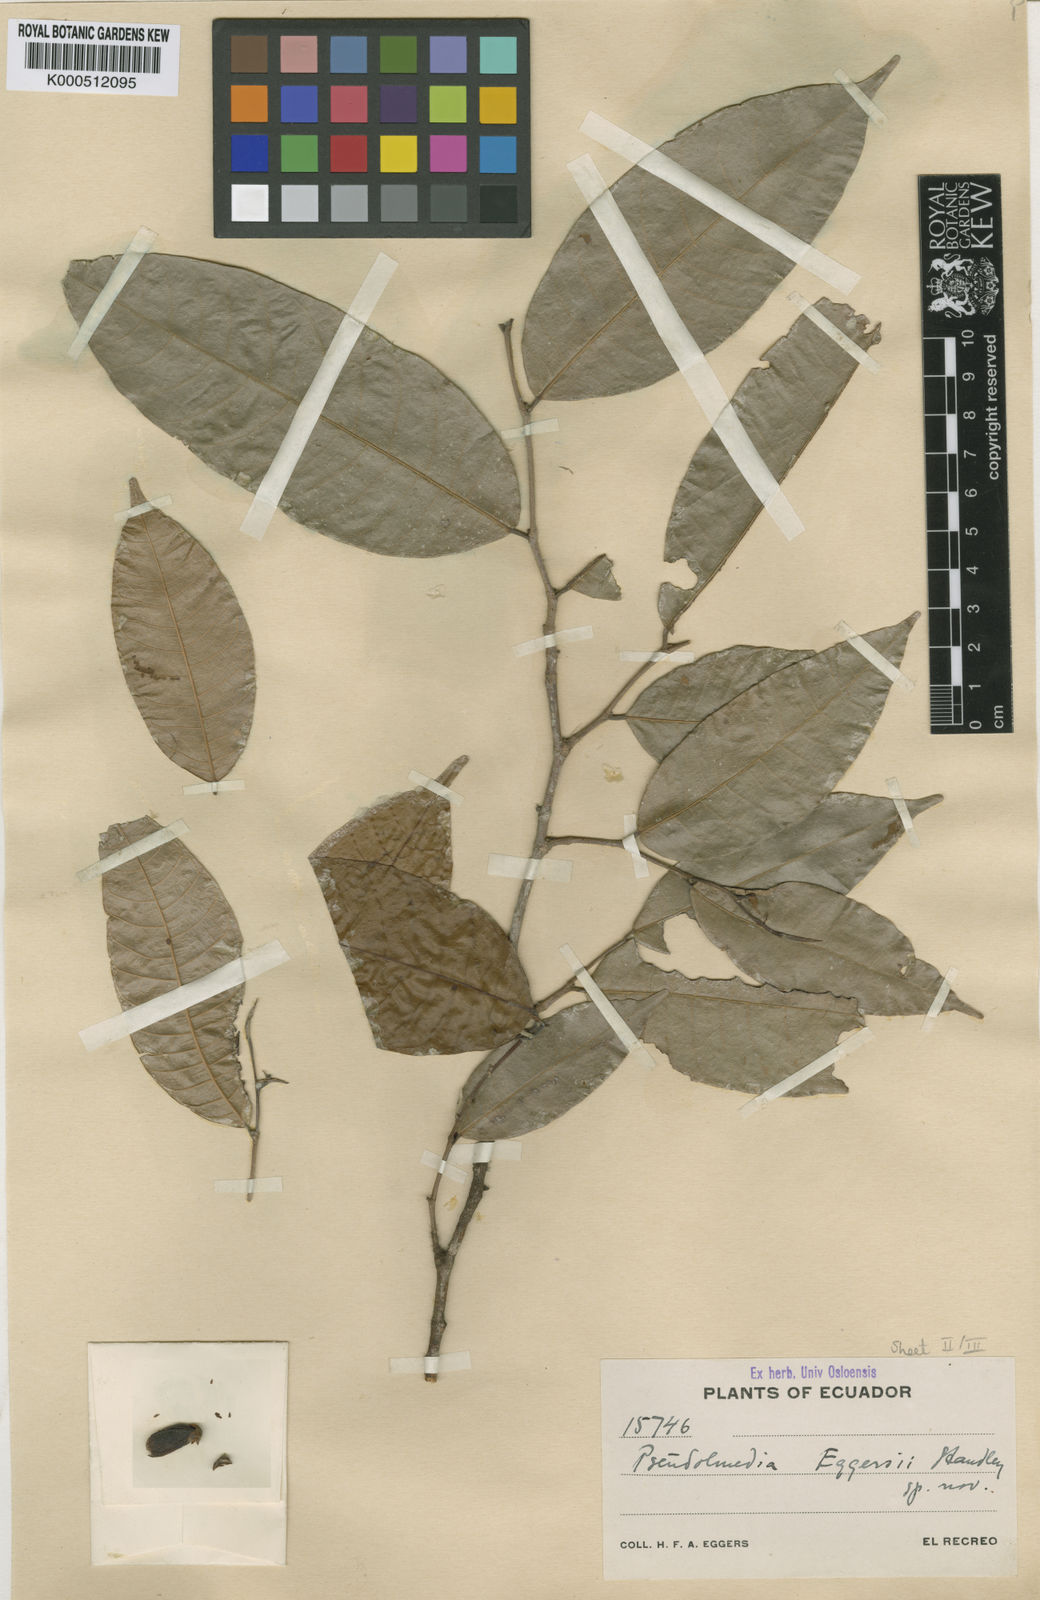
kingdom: Plantae
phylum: Tracheophyta
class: Magnoliopsida
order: Rosales
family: Moraceae
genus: Pseudolmedia
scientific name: Pseudolmedia rigida
